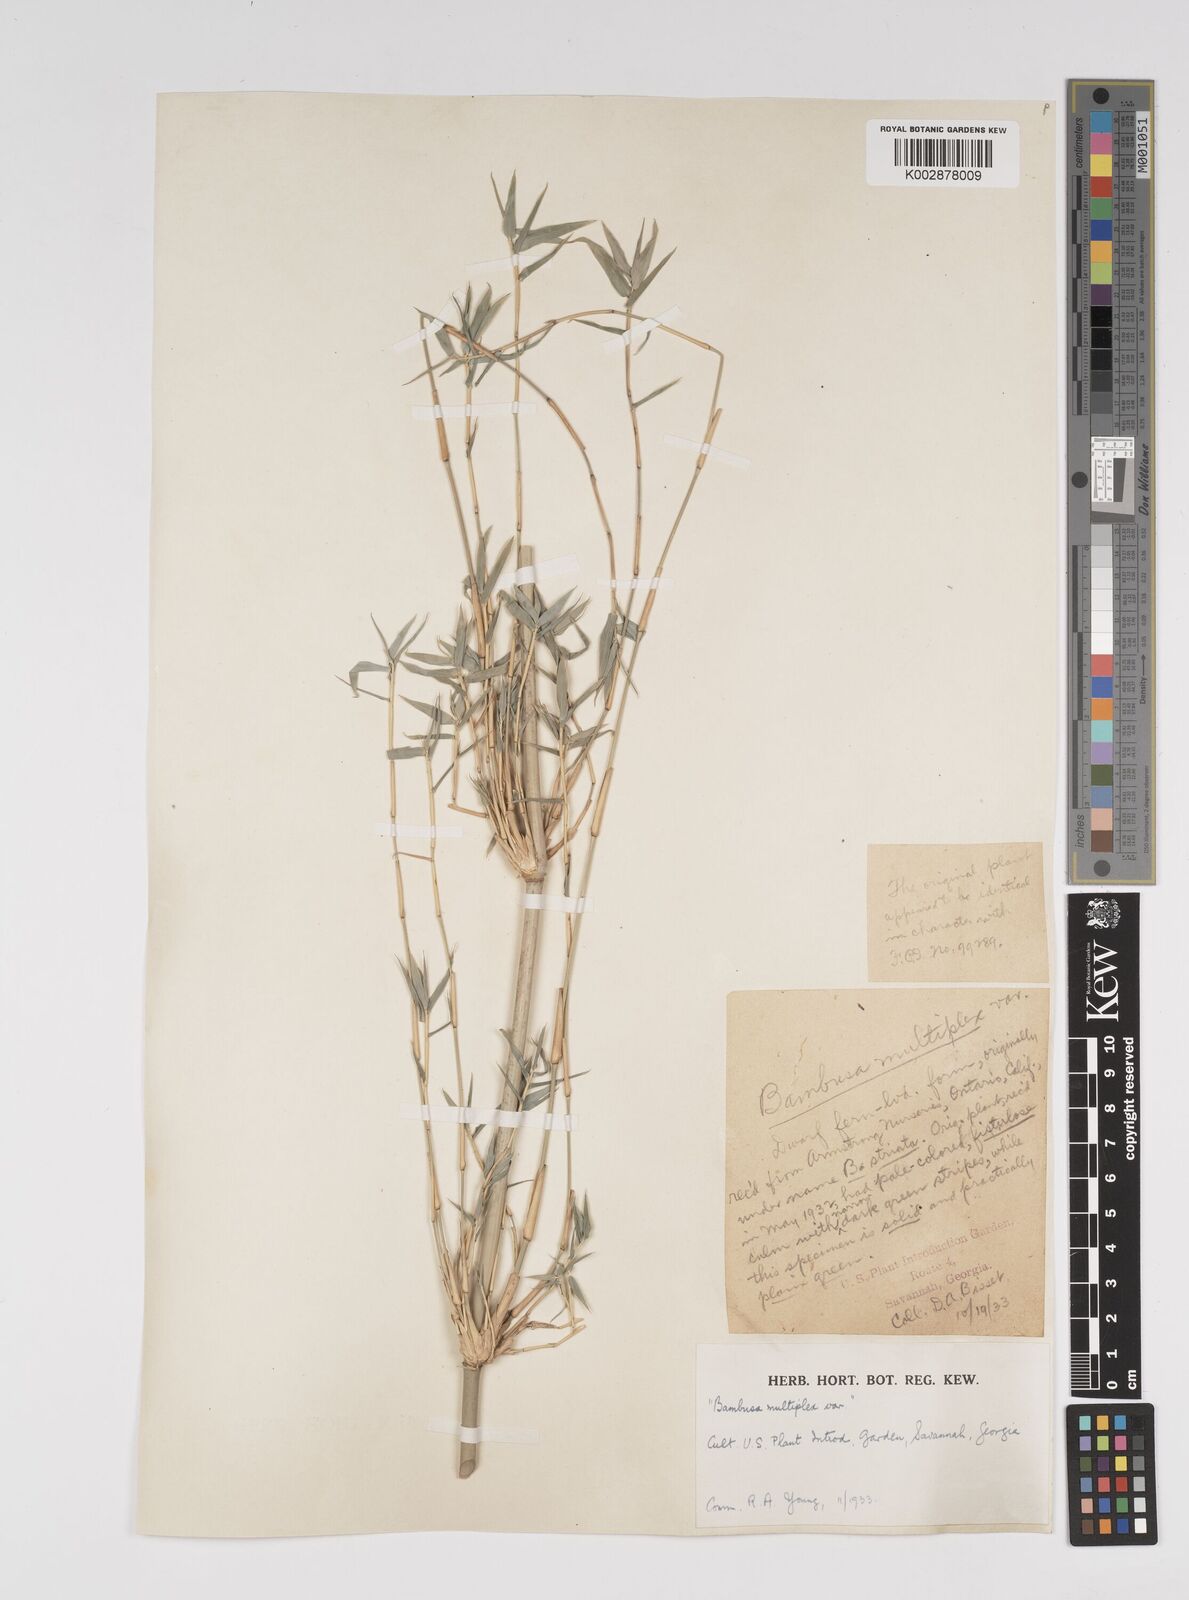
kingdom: Plantae
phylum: Tracheophyta
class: Liliopsida
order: Poales
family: Poaceae
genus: Bambusa
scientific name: Bambusa
